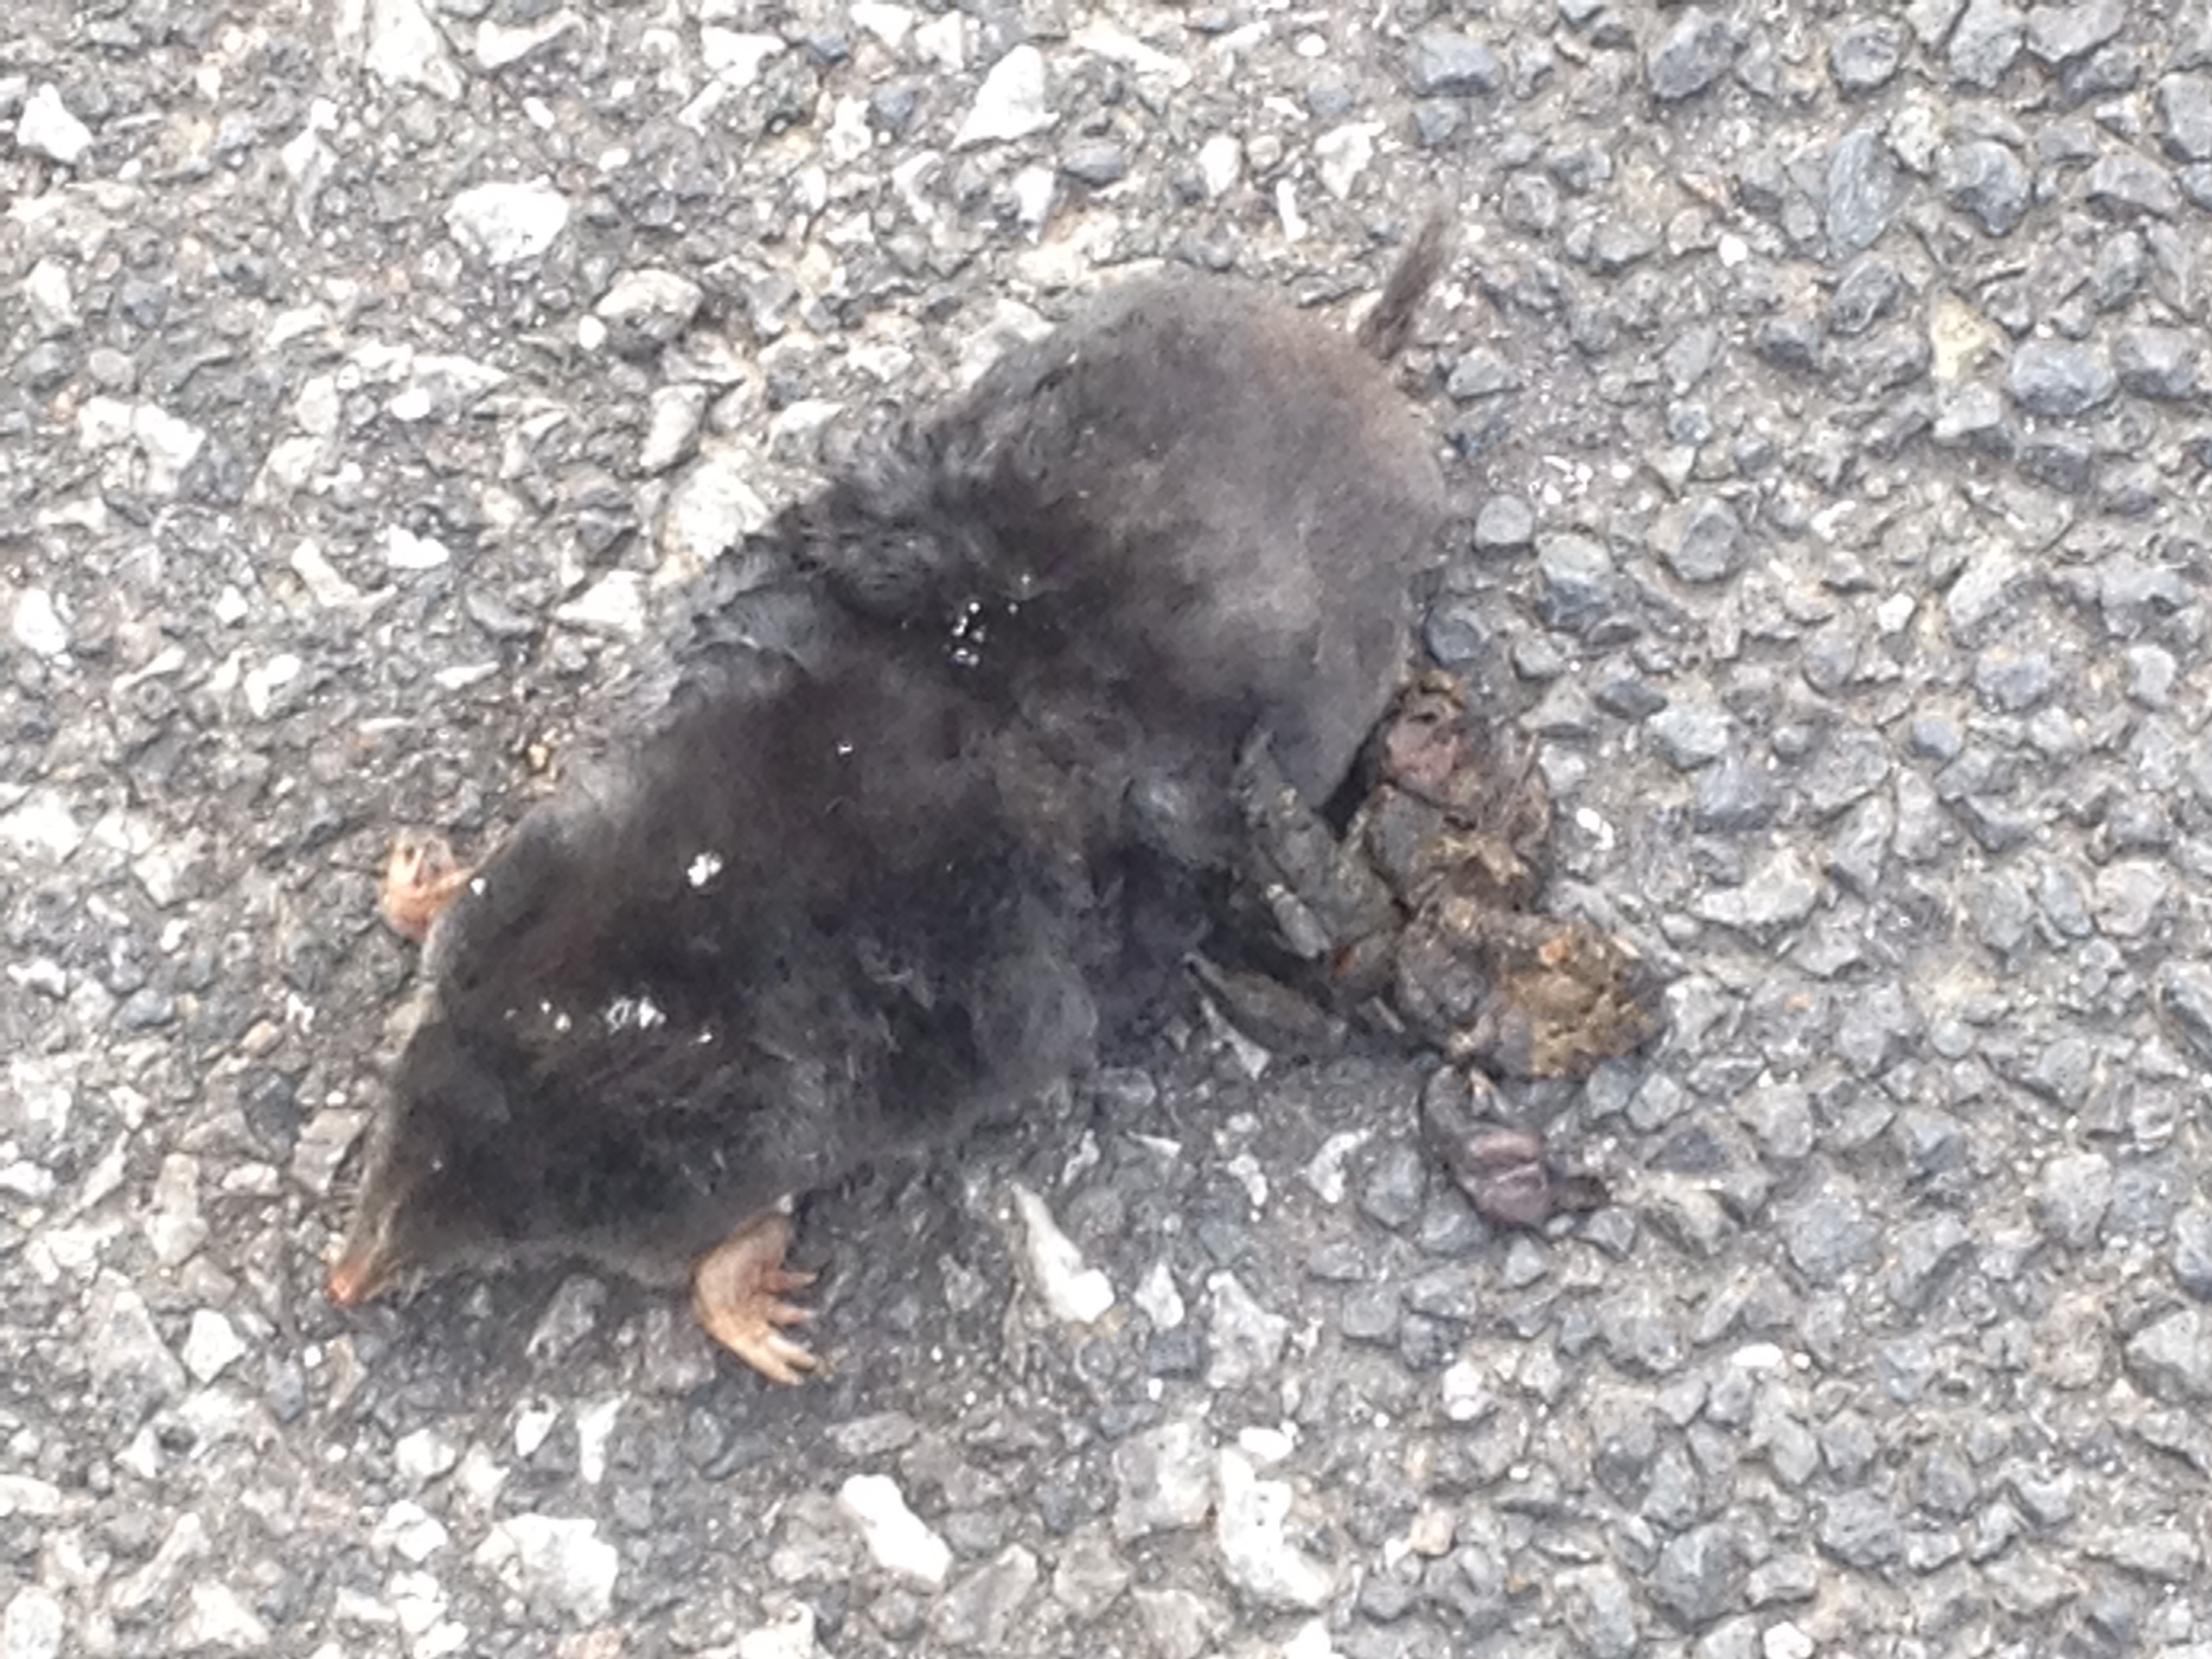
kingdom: Animalia
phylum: Chordata
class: Mammalia
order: Soricomorpha
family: Talpidae
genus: Talpa
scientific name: Talpa europaea
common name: European mole
